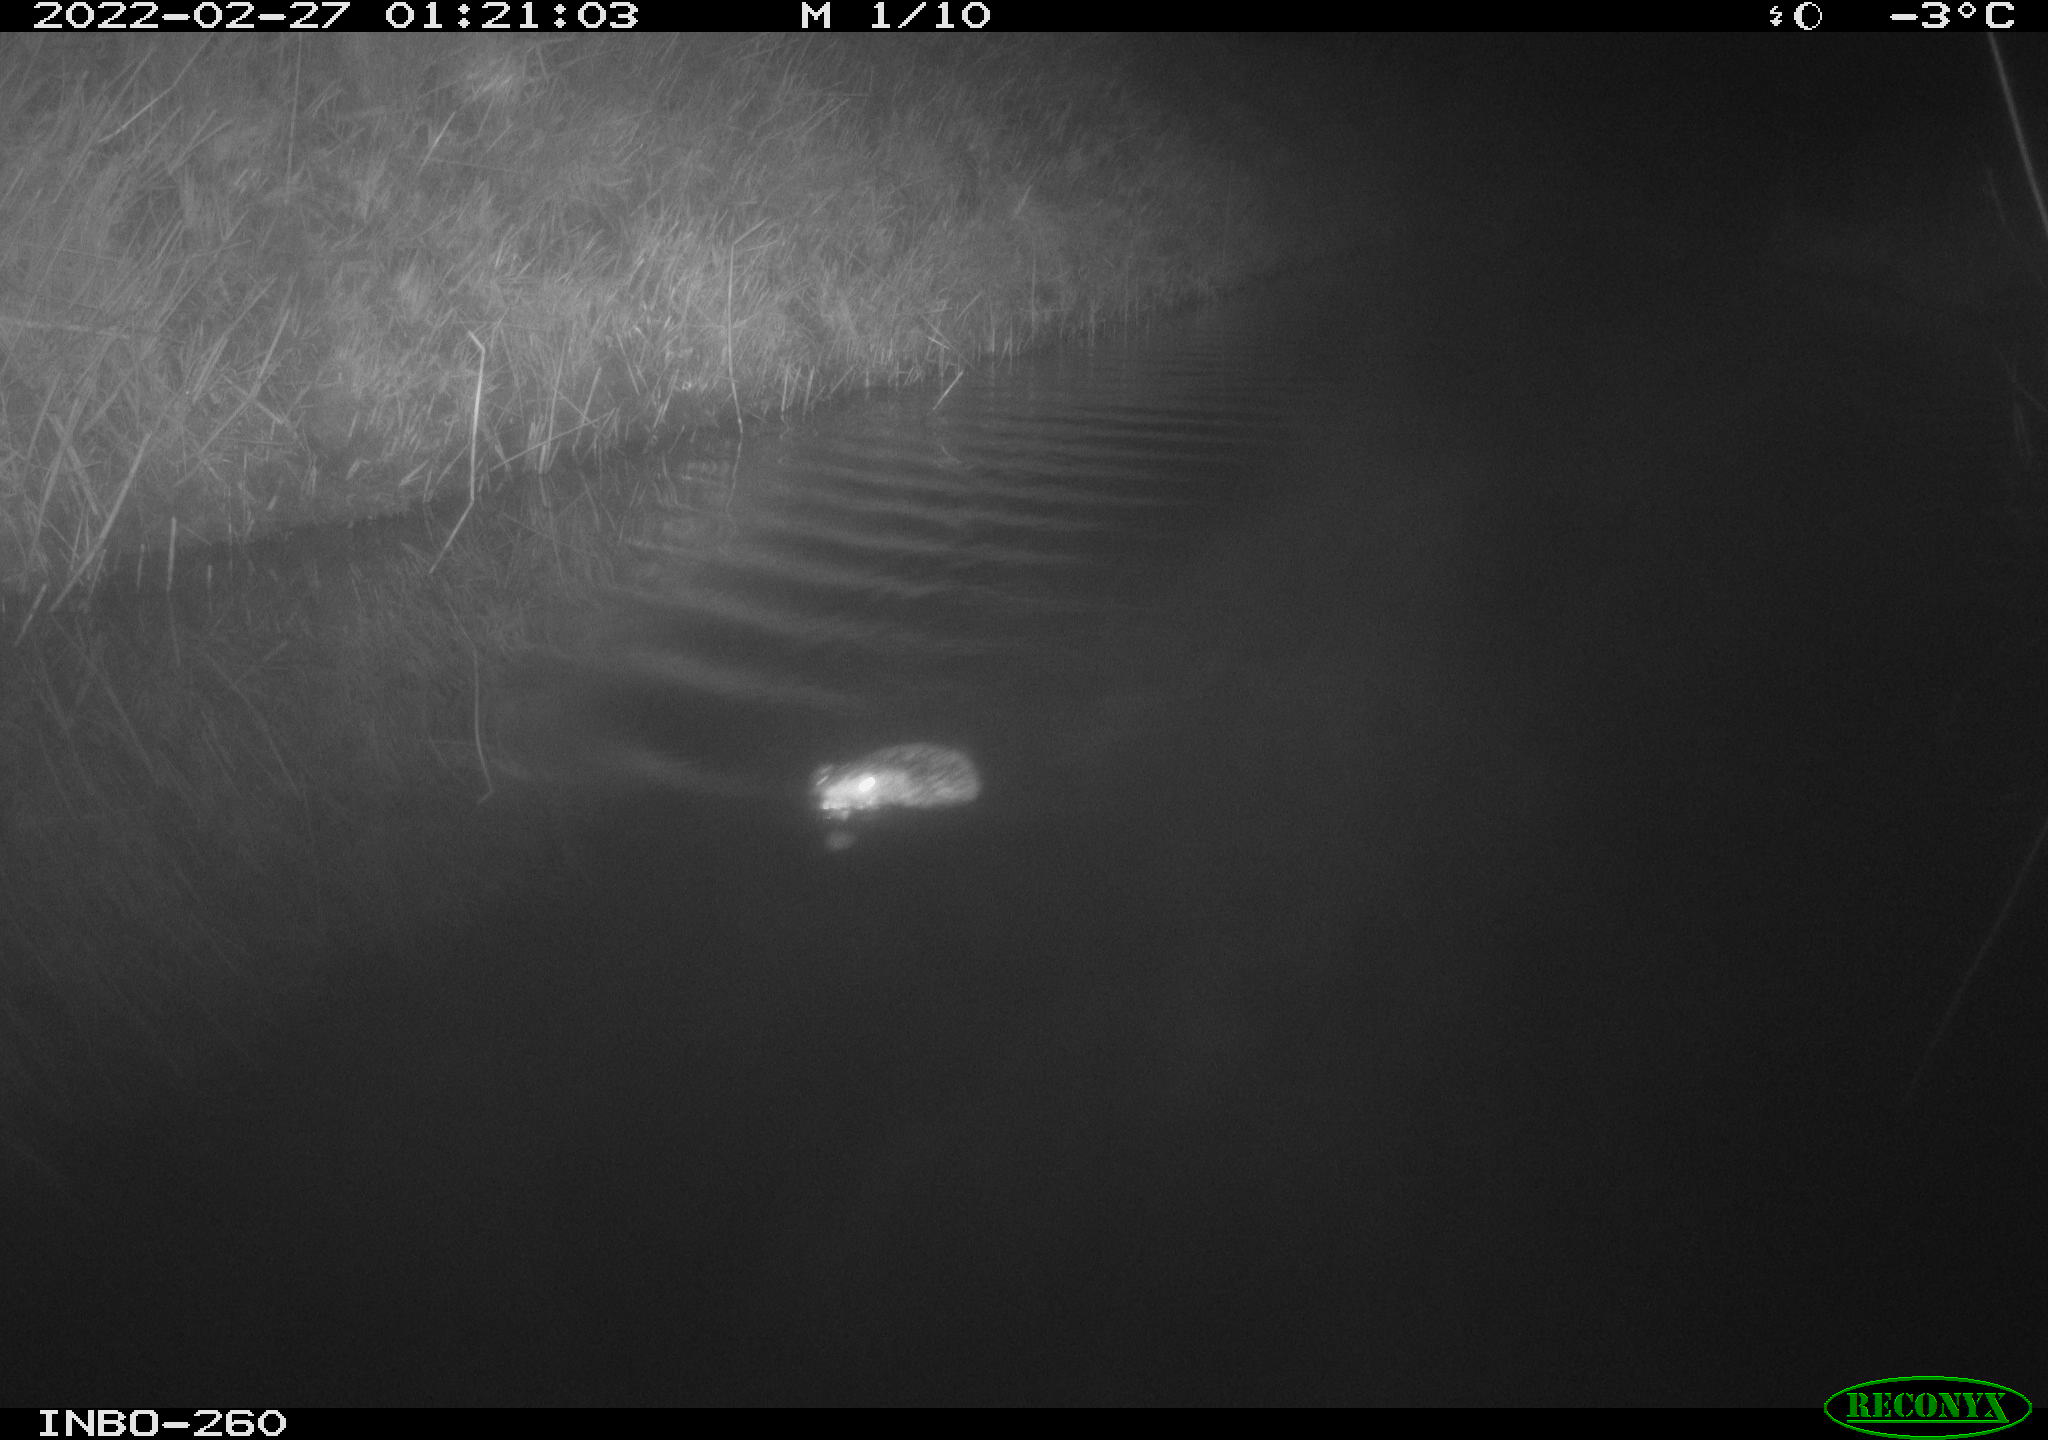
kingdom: Animalia
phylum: Chordata
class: Mammalia
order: Rodentia
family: Cricetidae
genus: Ondatra
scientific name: Ondatra zibethicus
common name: Muskrat
